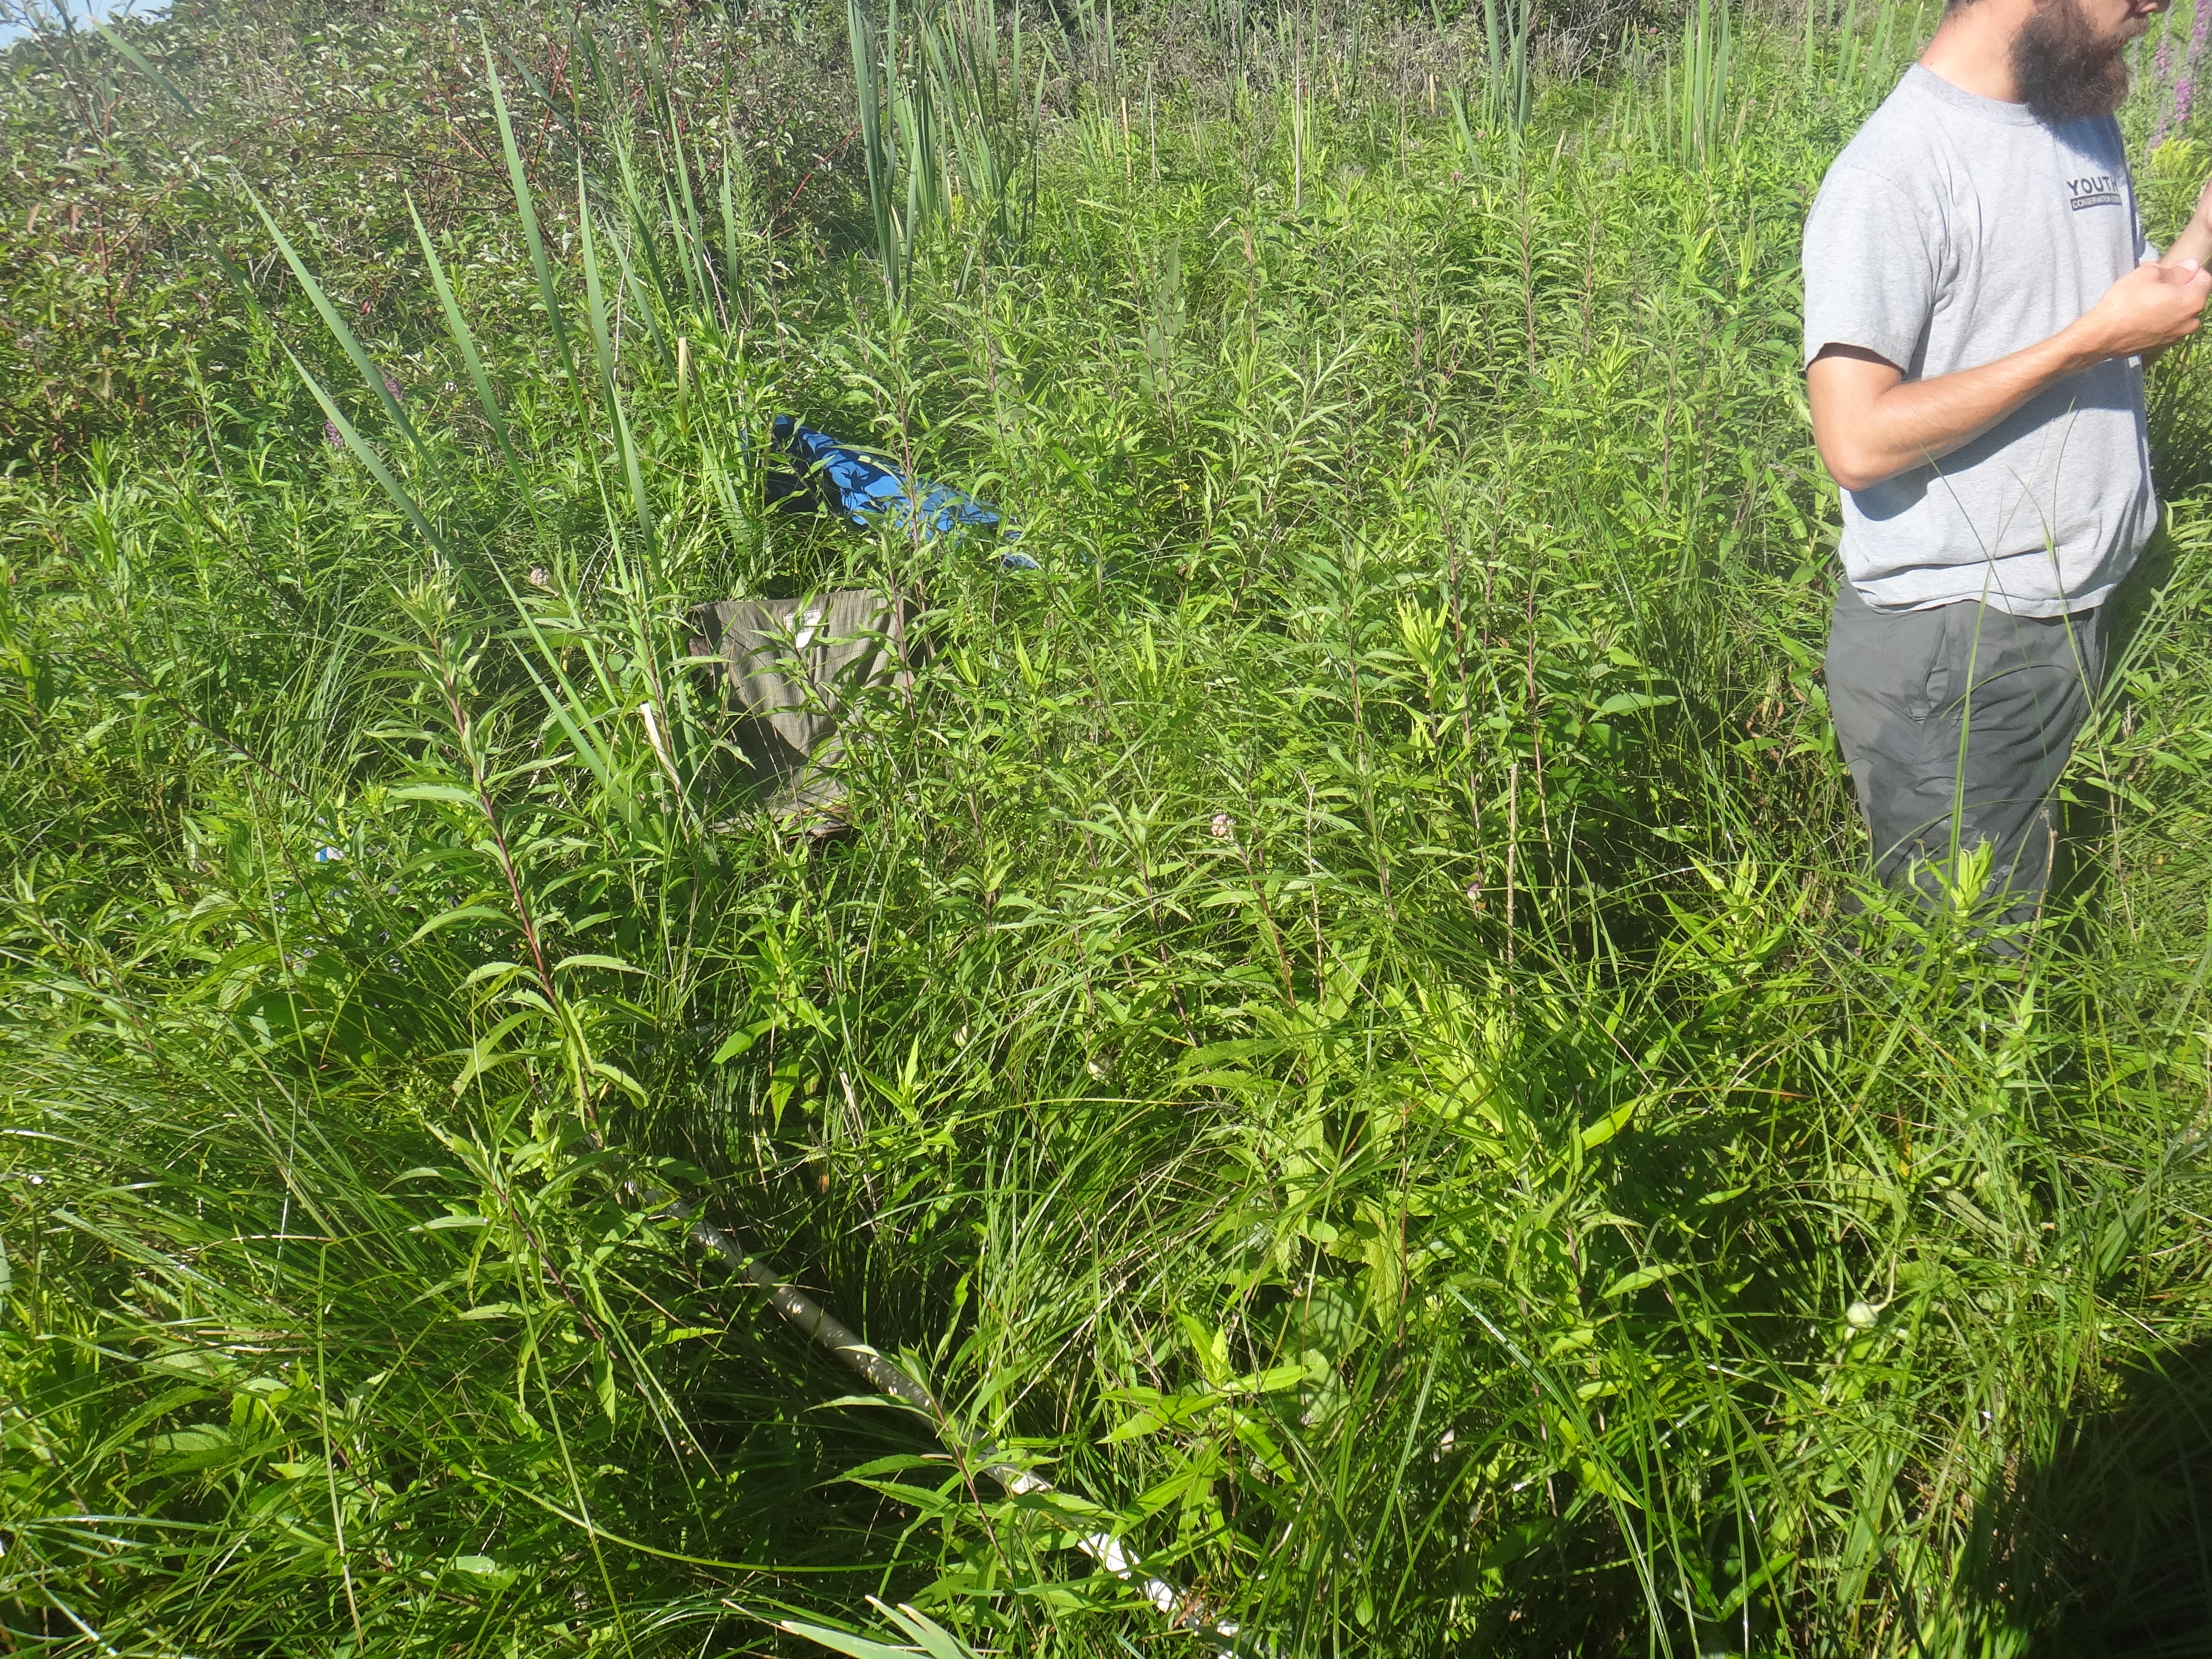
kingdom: Plantae
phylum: Tracheophyta
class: Magnoliopsida
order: Ericales
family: Balsaminaceae
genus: Impatiens
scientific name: Impatiens capensis
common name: Orange balsam
